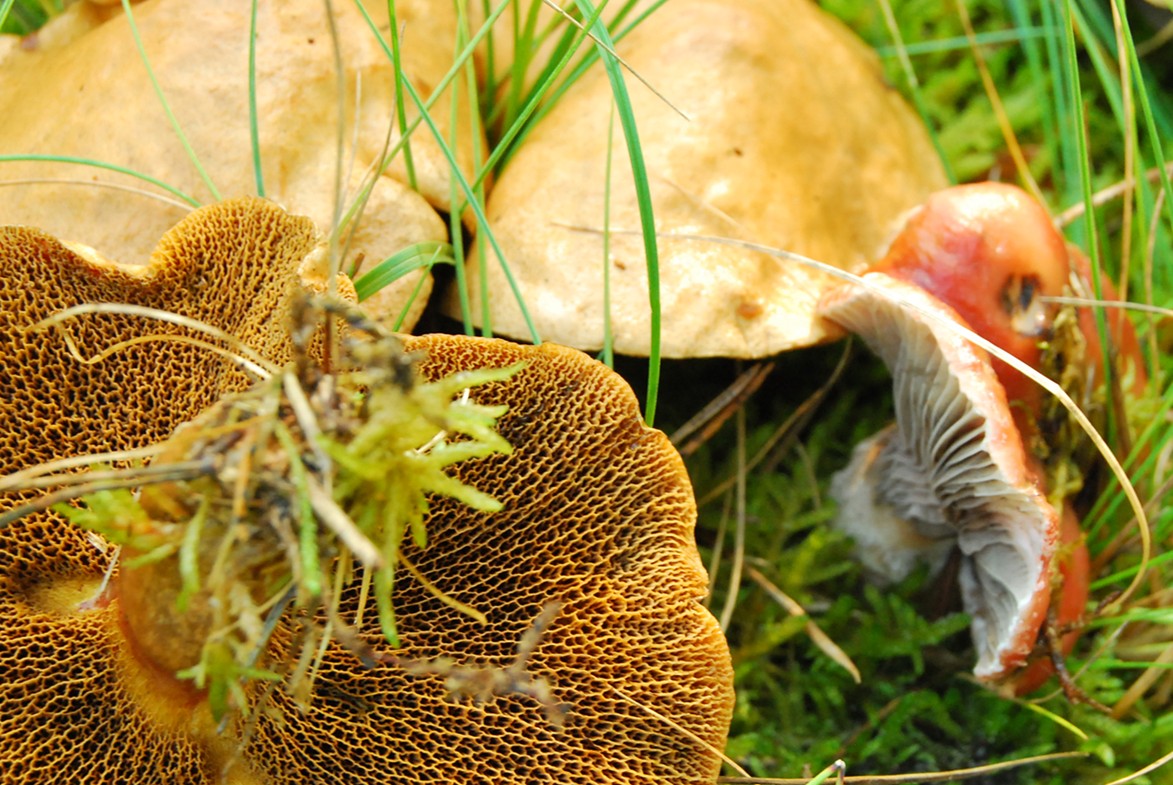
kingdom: Fungi
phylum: Basidiomycota
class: Agaricomycetes
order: Boletales
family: Gomphidiaceae
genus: Gomphidius
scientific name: Gomphidius roseus
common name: rosenrød slimslør
